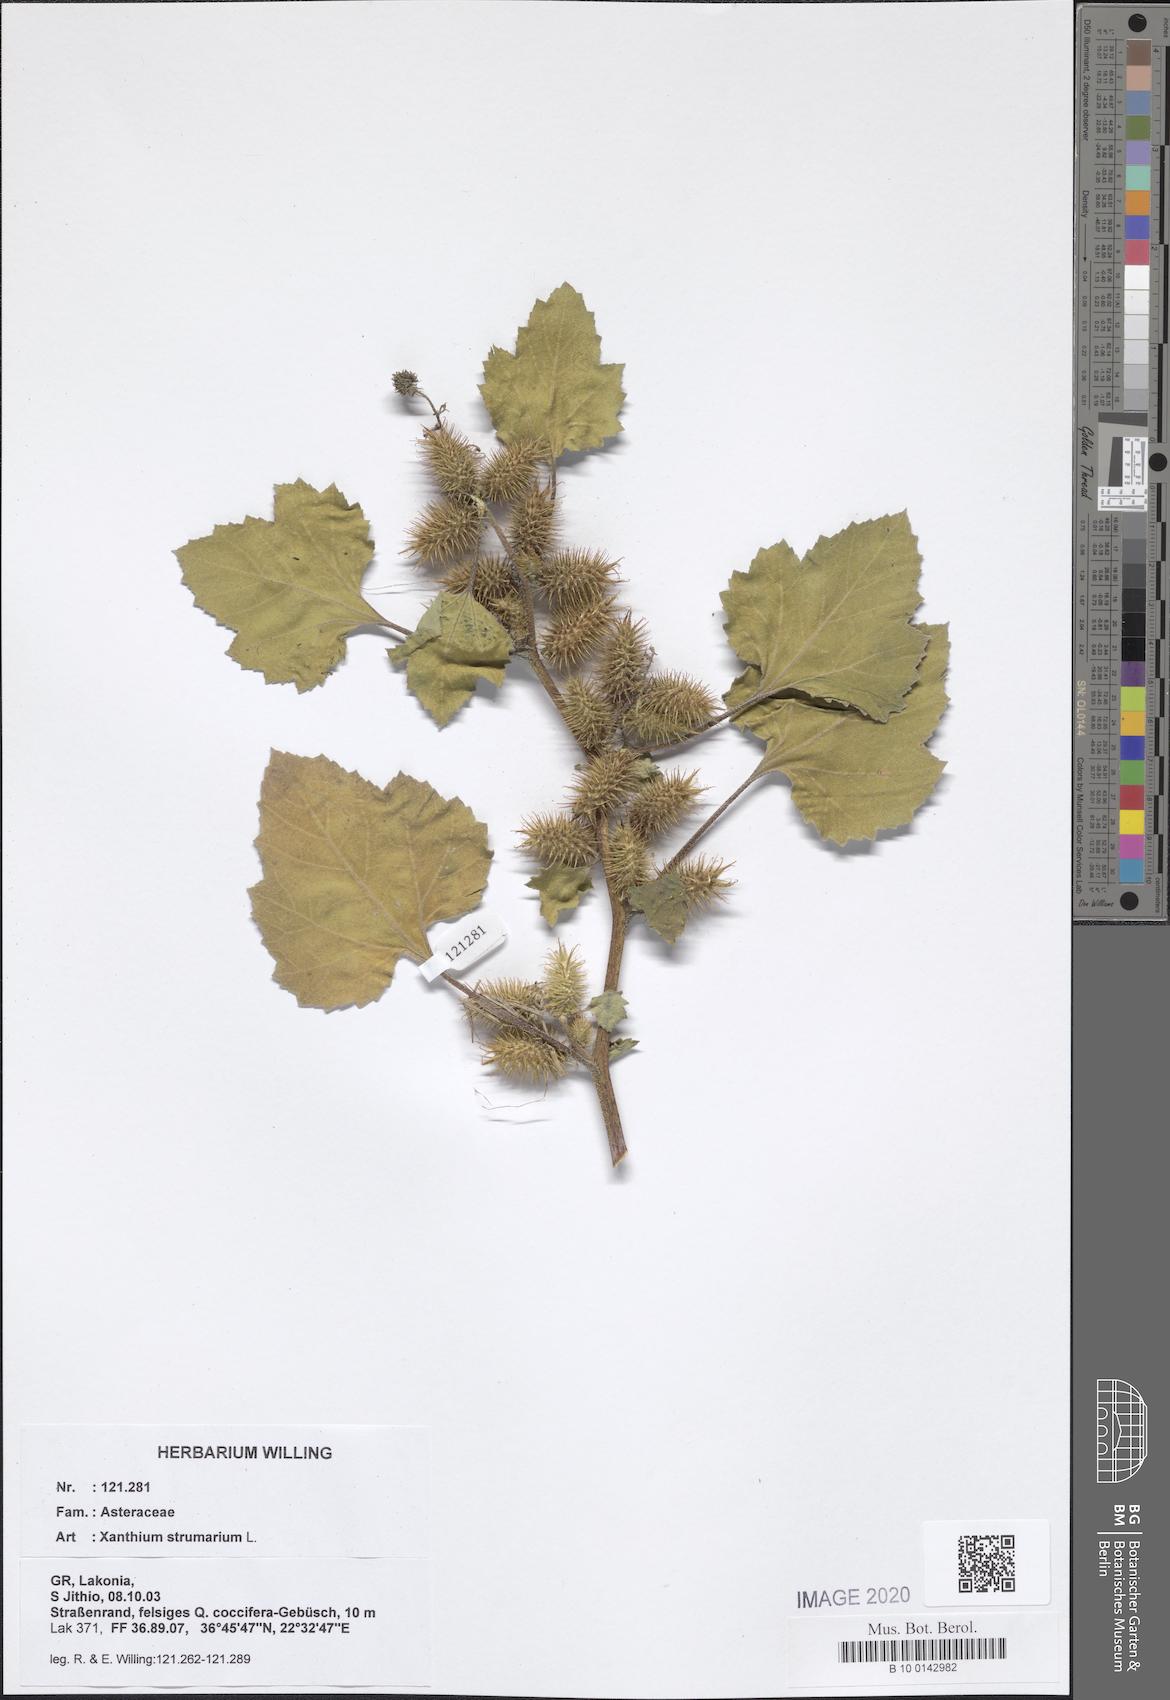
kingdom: Plantae
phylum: Tracheophyta
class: Magnoliopsida
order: Asterales
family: Asteraceae
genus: Xanthium
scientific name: Xanthium strumarium
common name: Rough cocklebur
